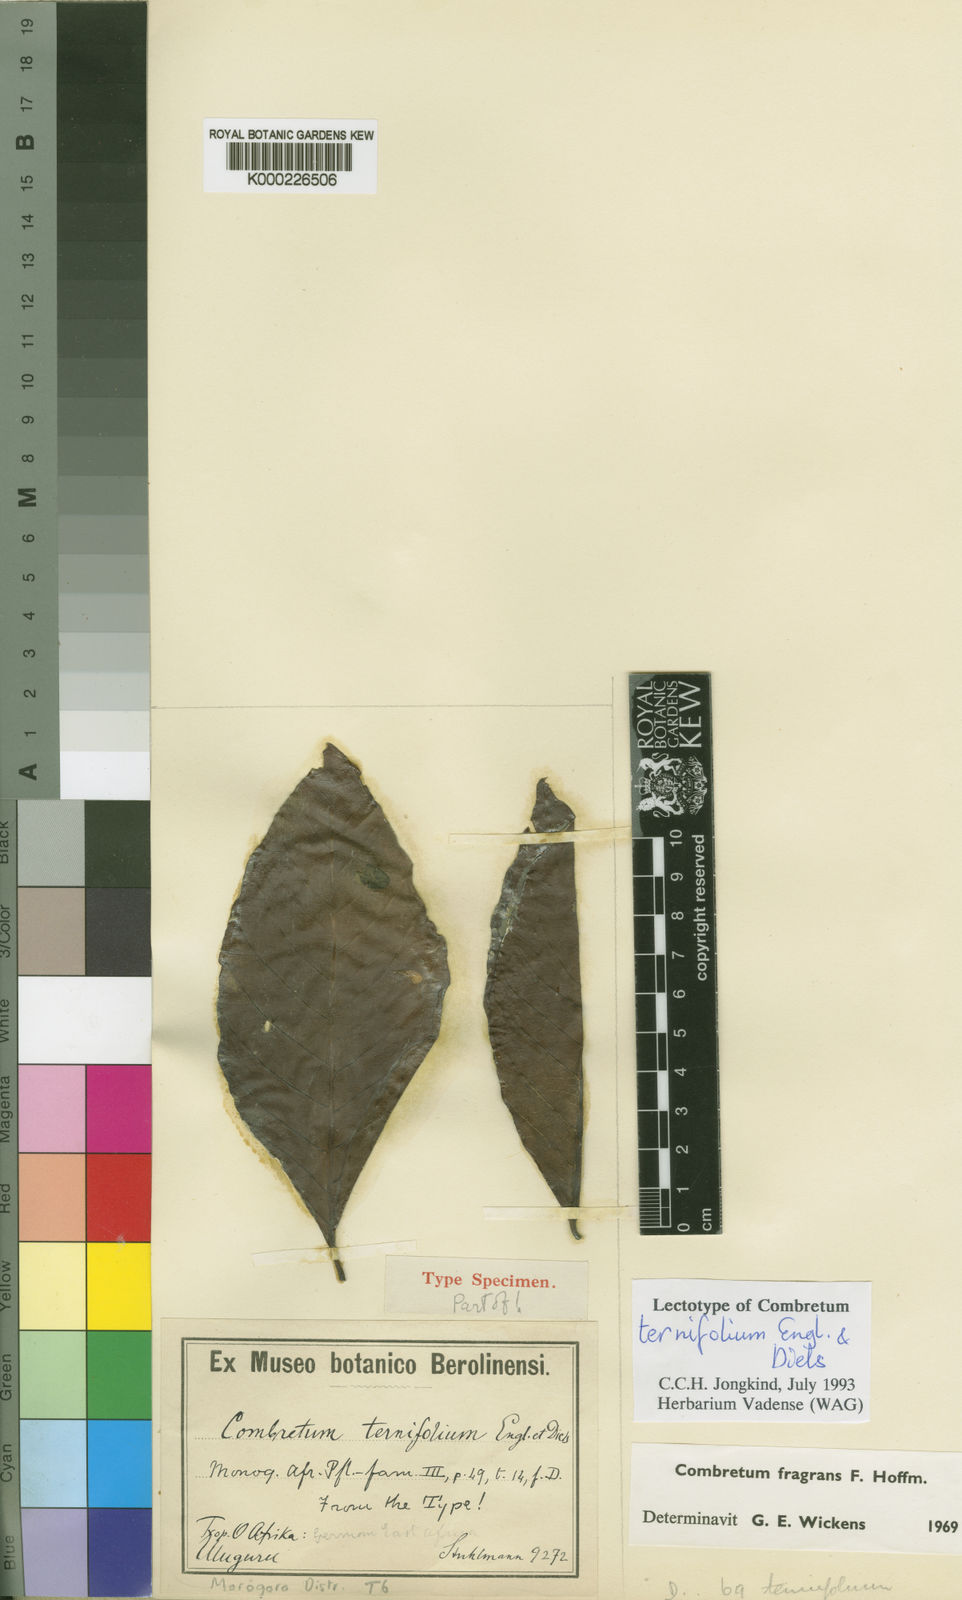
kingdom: Plantae
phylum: Tracheophyta
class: Magnoliopsida
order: Myrtales
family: Combretaceae
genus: Combretum
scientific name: Combretum adenogonium
